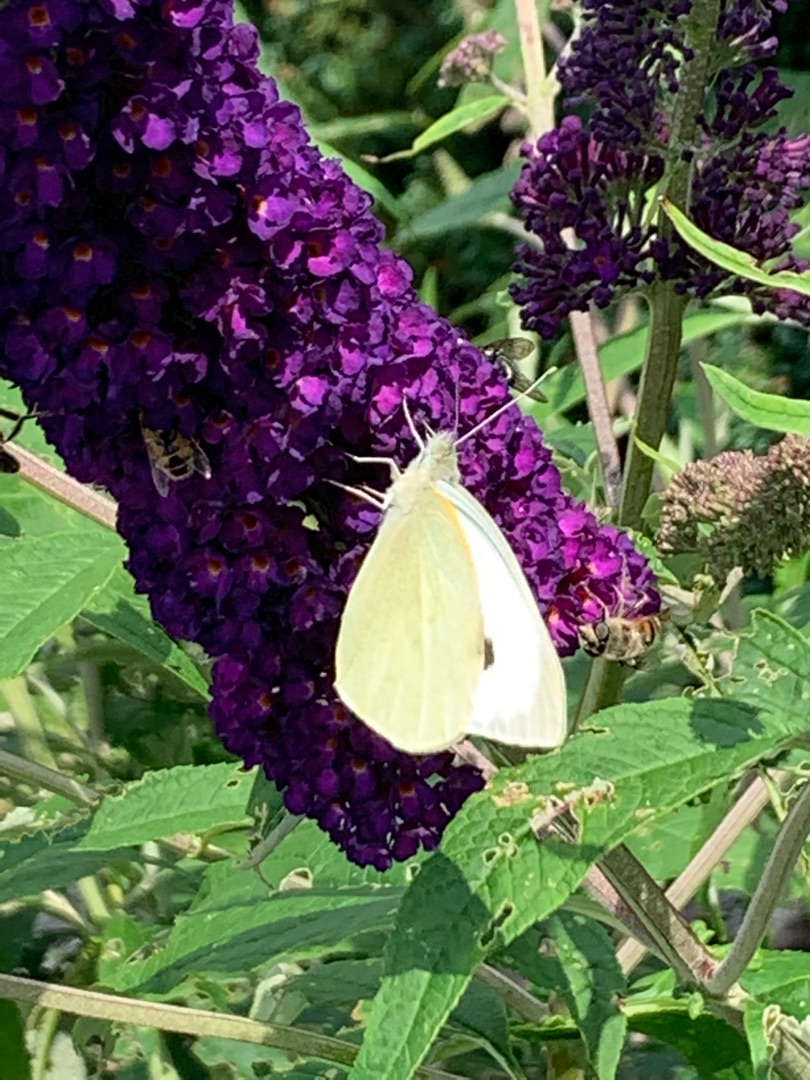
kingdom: Animalia
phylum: Arthropoda
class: Insecta
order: Lepidoptera
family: Pieridae
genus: Pieris
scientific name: Pieris brassicae
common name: Stor kålsommerfugl
